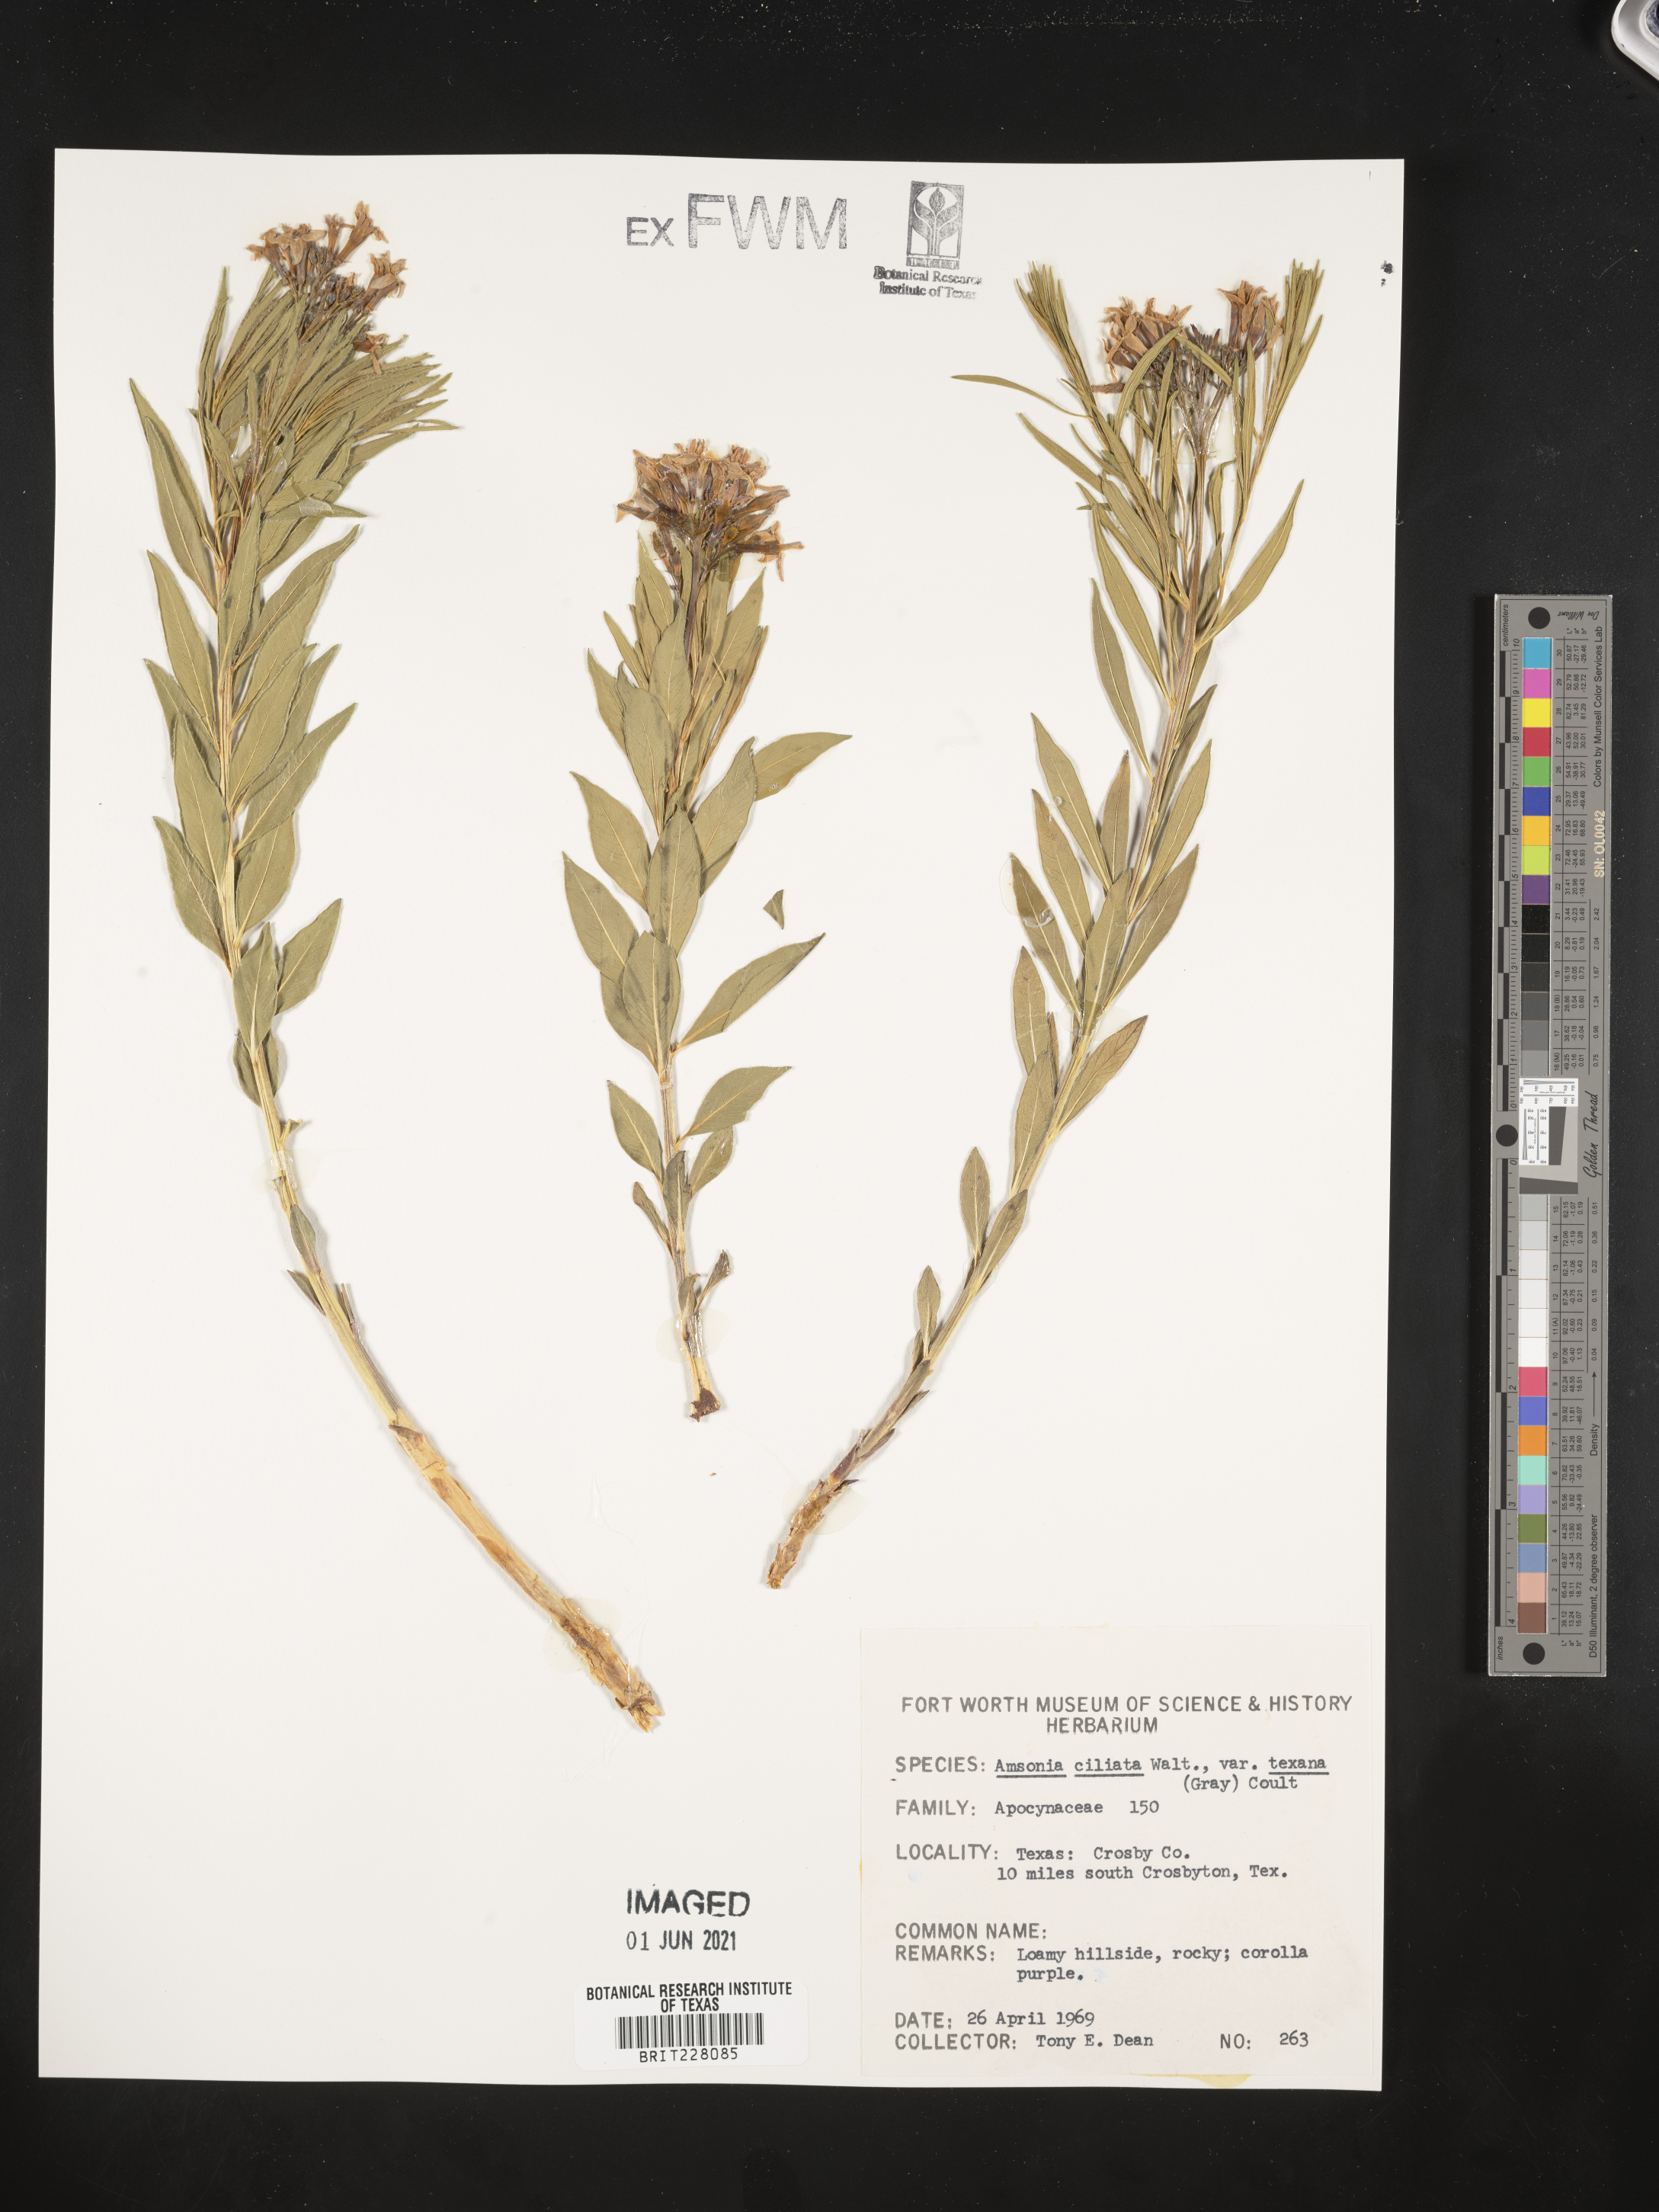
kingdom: Plantae
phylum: Tracheophyta
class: Magnoliopsida
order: Gentianales
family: Apocynaceae
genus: Amsonia
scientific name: Amsonia ciliata
